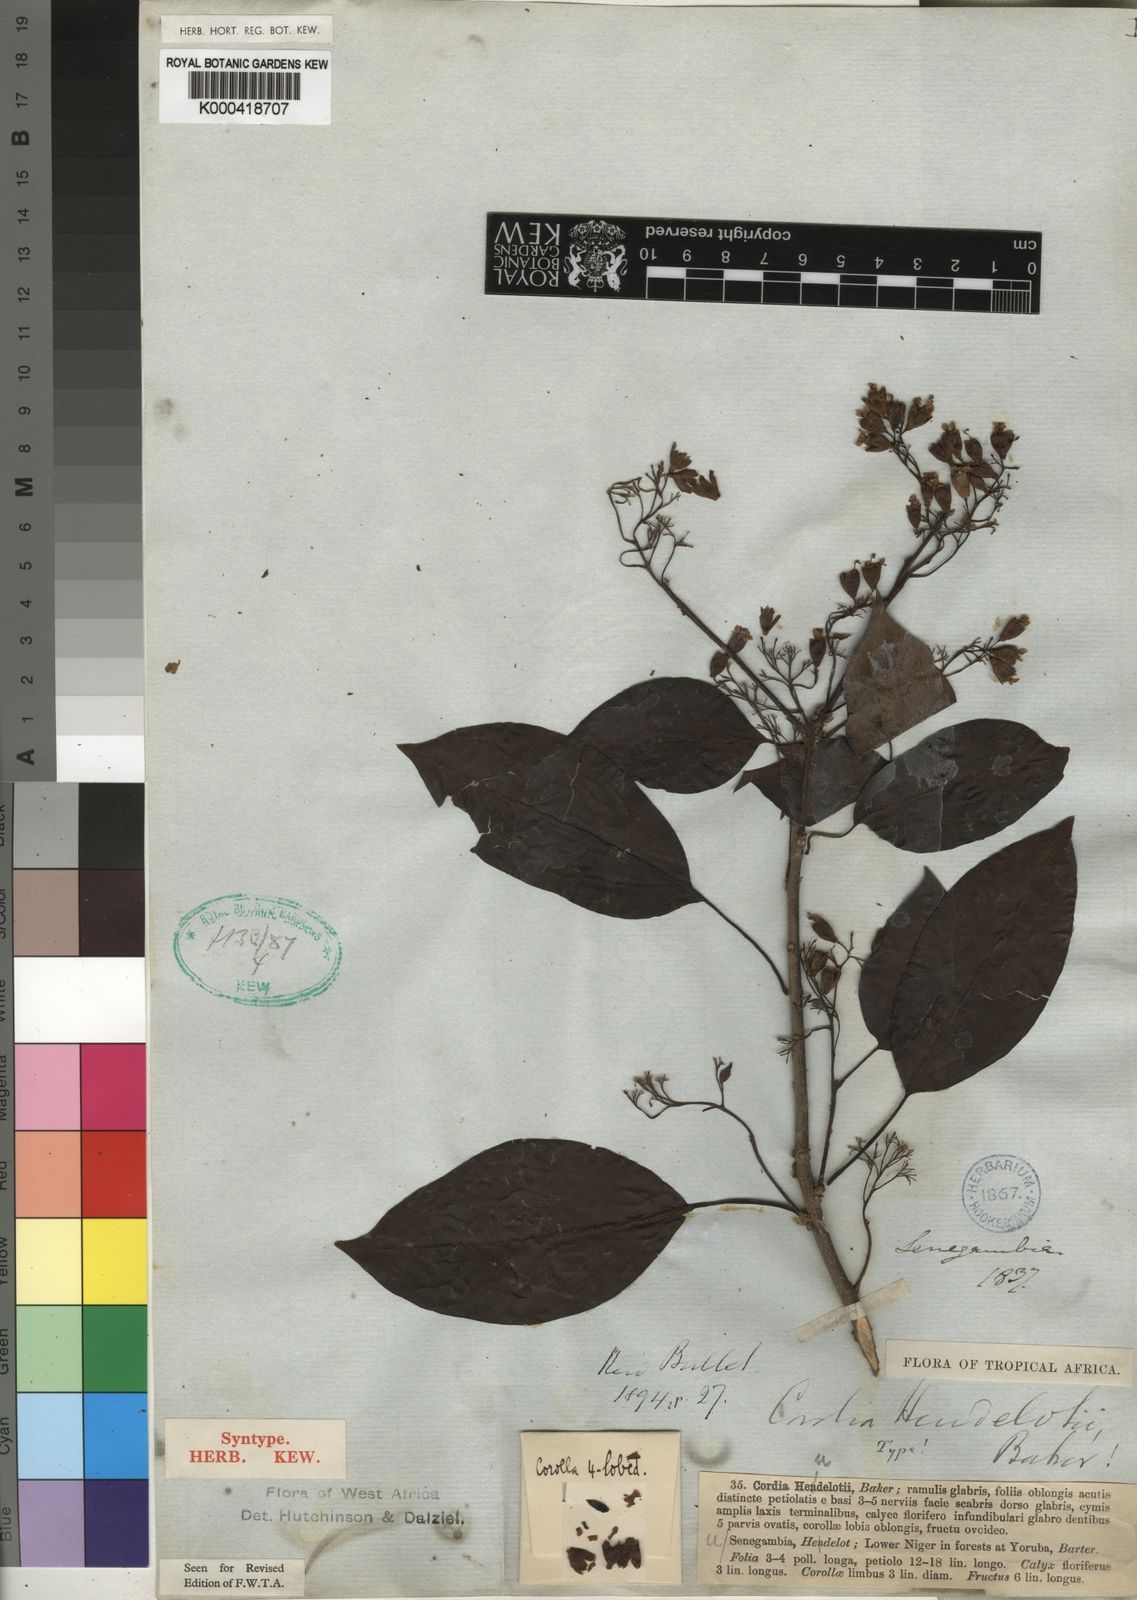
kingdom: Plantae
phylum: Tracheophyta
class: Magnoliopsida
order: Boraginales
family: Cordiaceae
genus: Cordia
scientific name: Cordia
